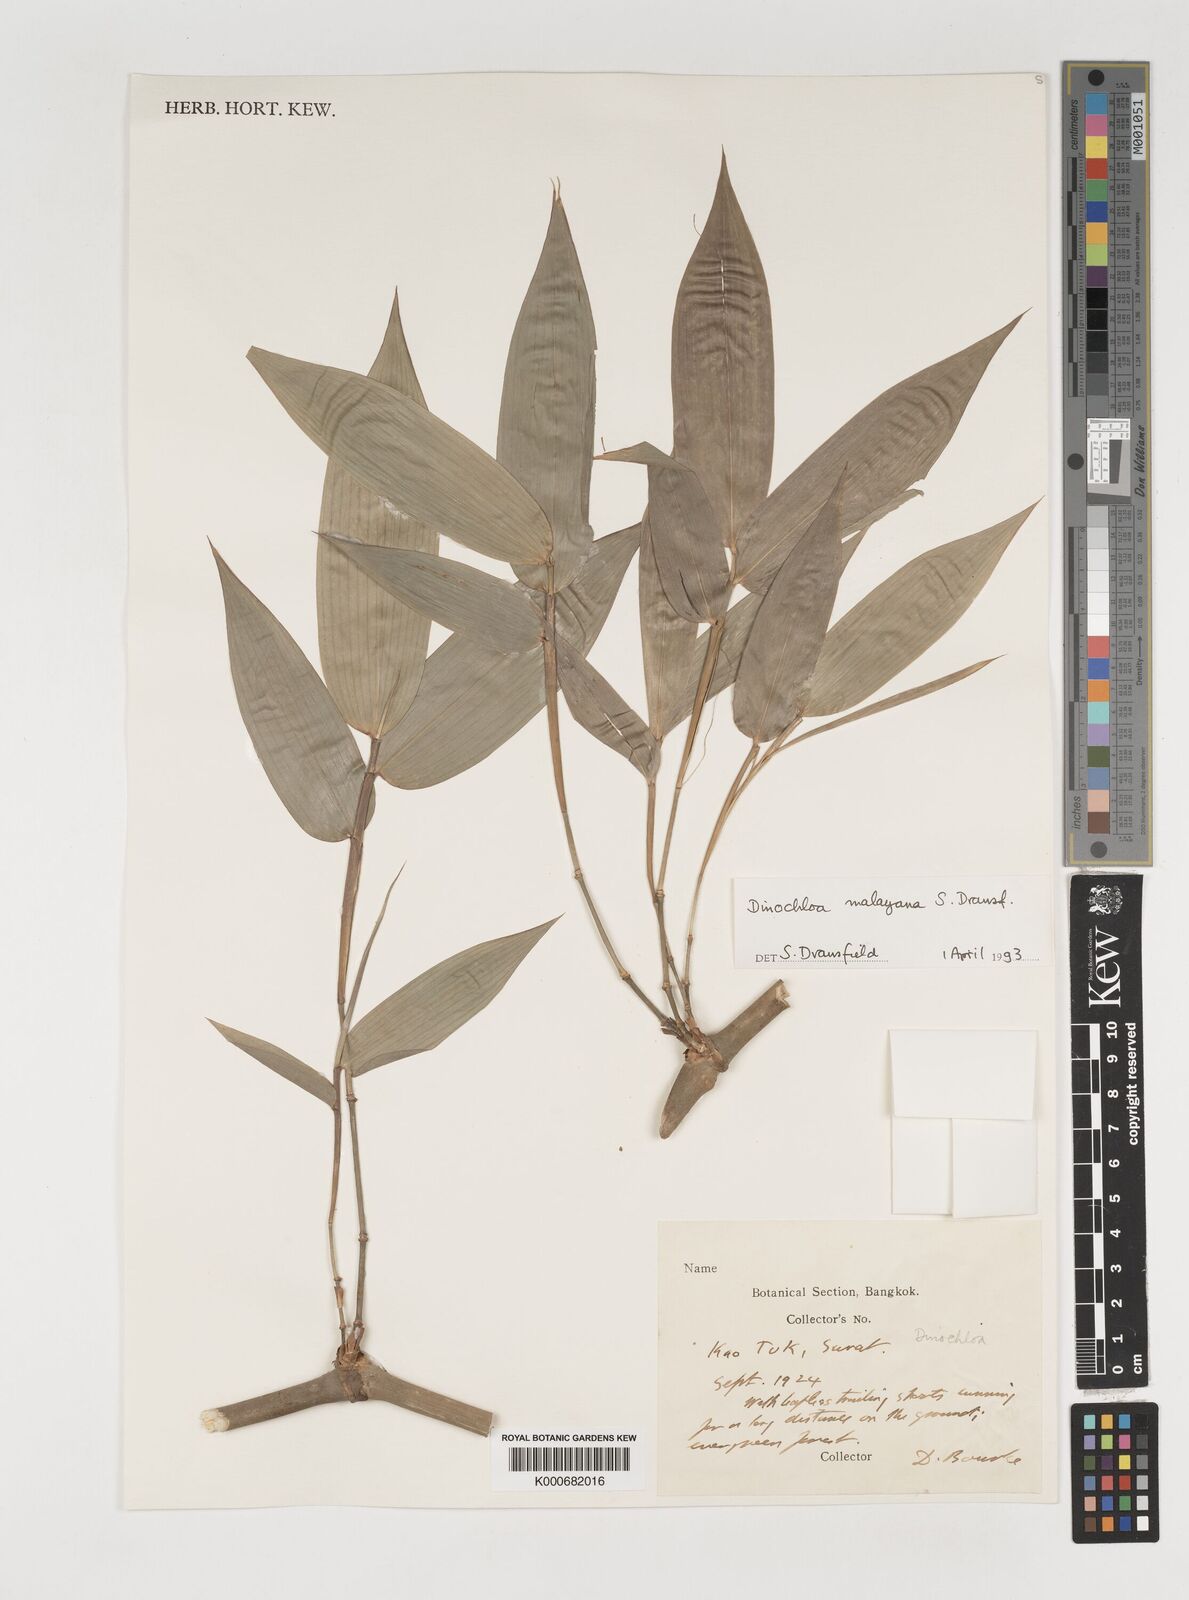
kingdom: Plantae
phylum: Tracheophyta
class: Liliopsida
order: Poales
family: Poaceae
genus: Dinochloa
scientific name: Dinochloa malayana
